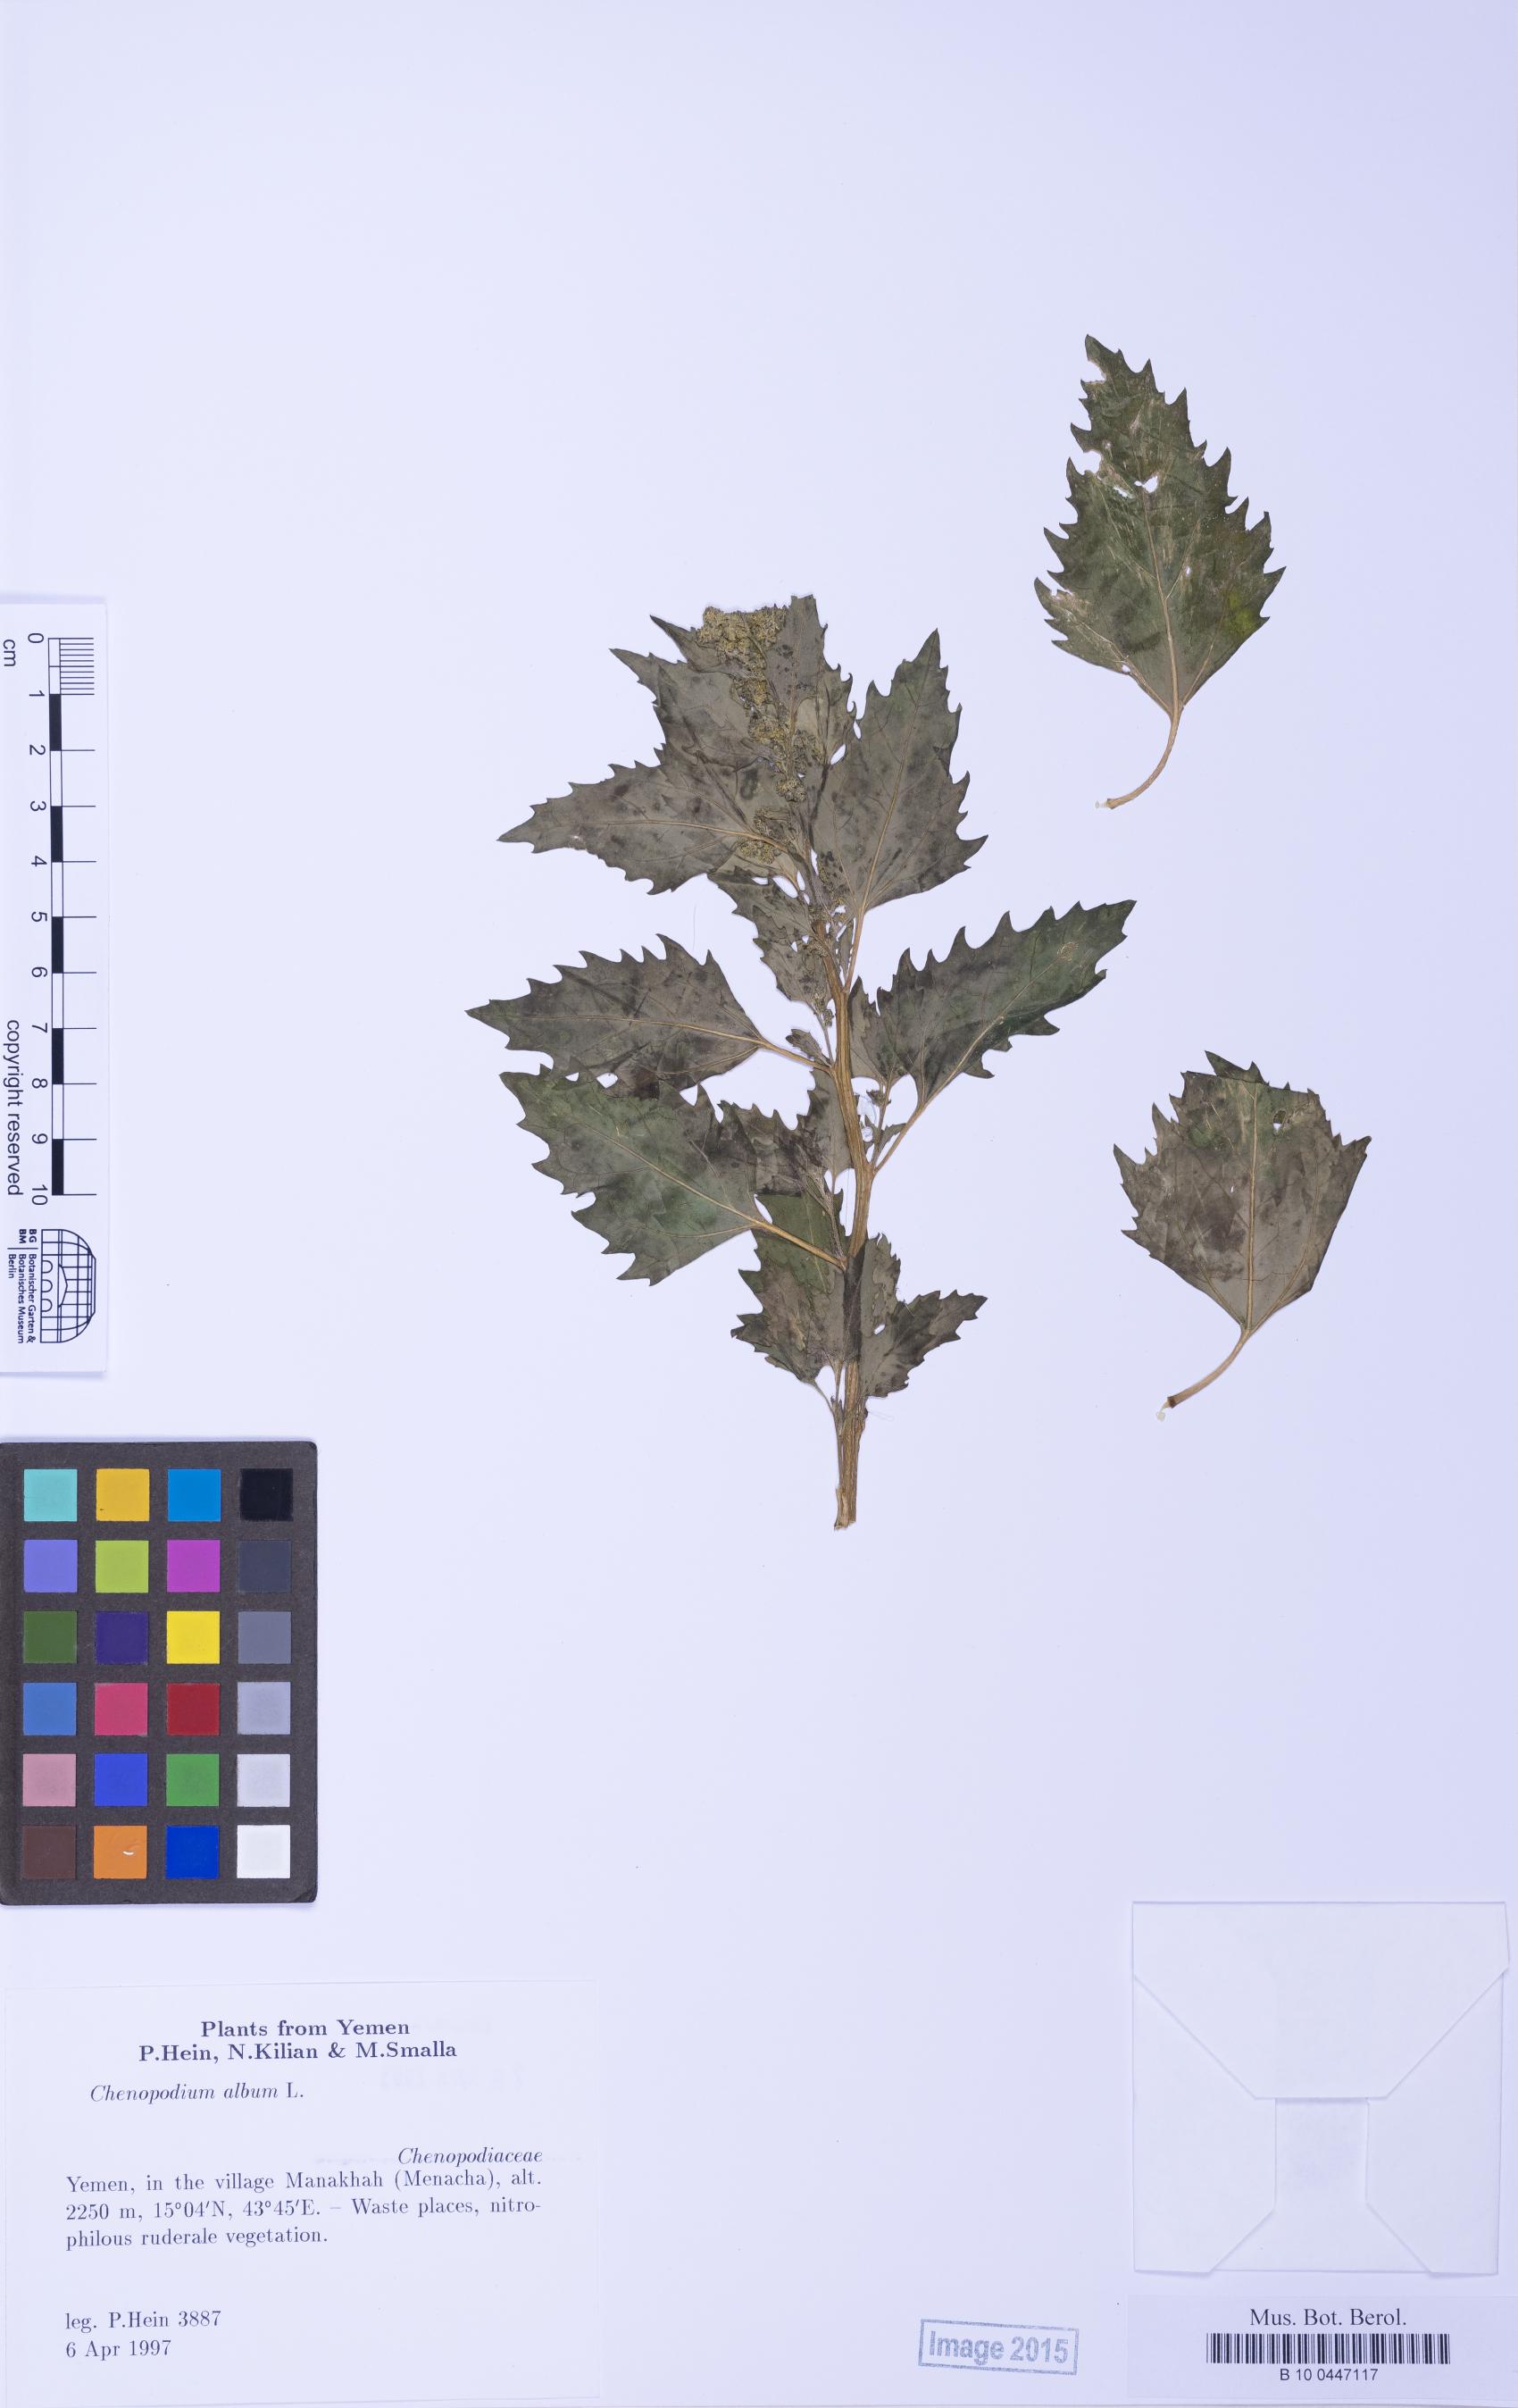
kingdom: Plantae
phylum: Tracheophyta
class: Magnoliopsida
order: Caryophyllales
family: Amaranthaceae
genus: Chenopodiastrum
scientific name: Chenopodiastrum murale
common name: Sowbane
